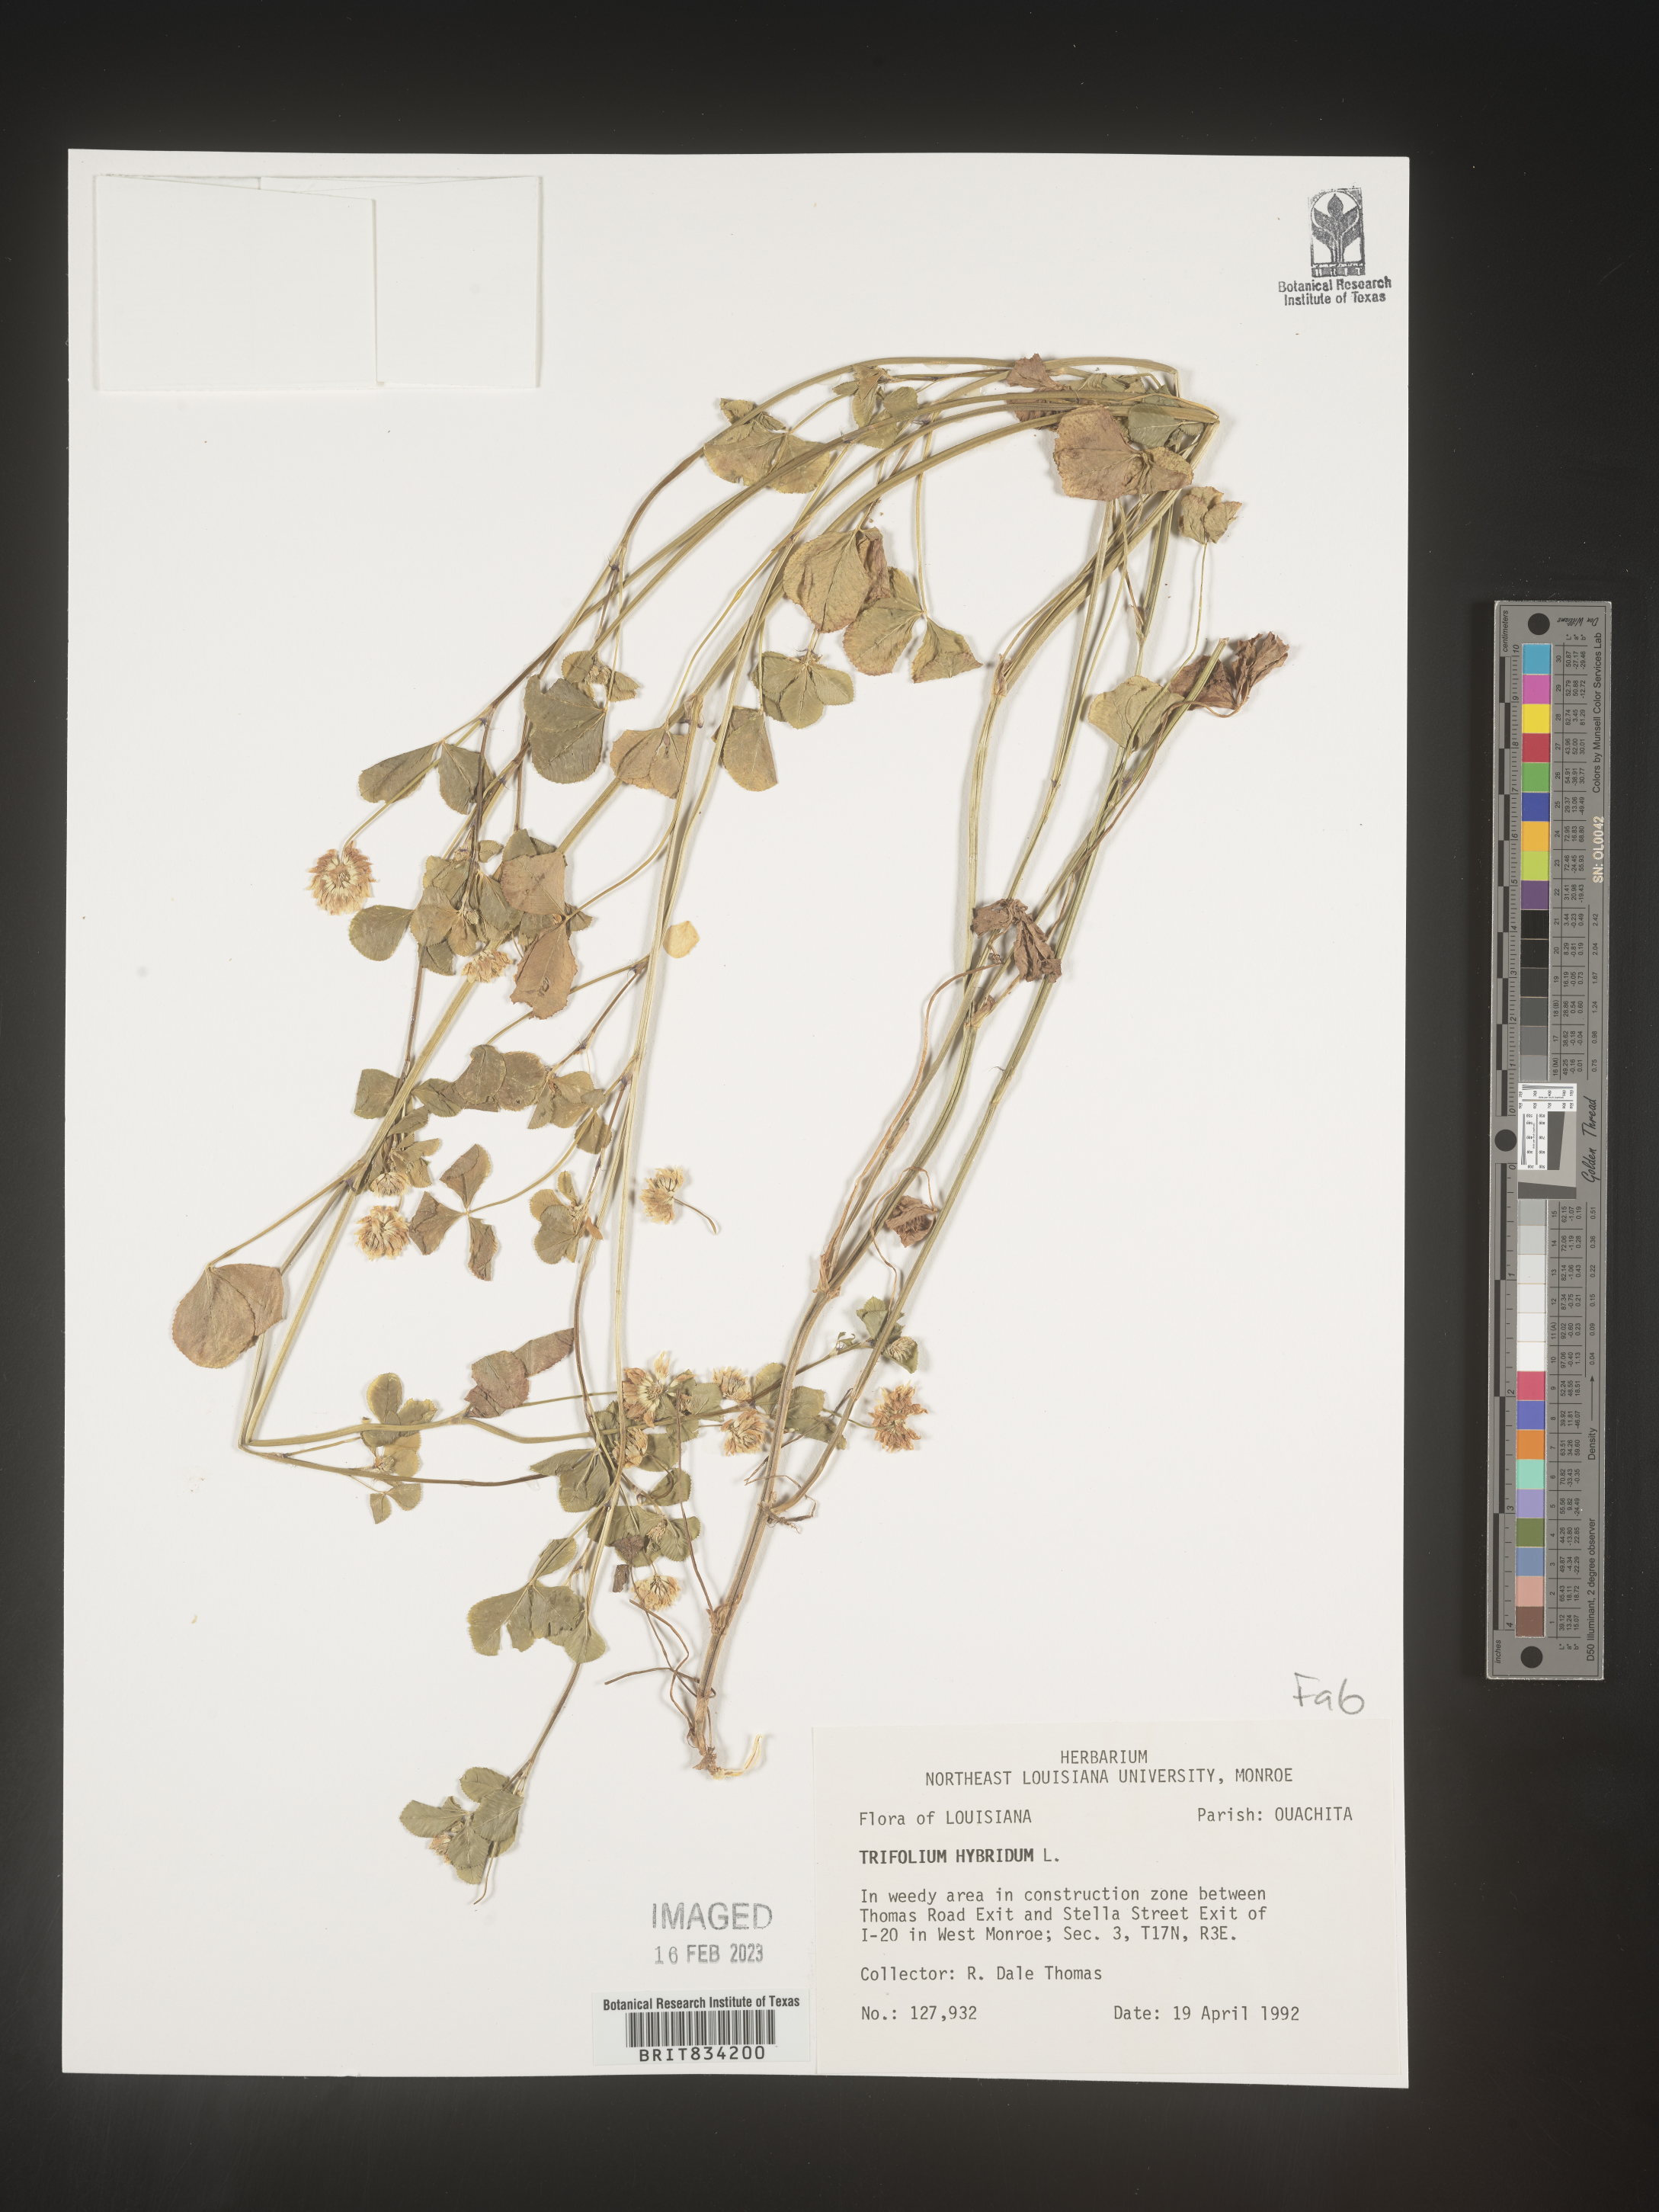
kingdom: Plantae
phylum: Tracheophyta
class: Magnoliopsida
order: Fabales
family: Fabaceae
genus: Trifolium
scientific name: Trifolium hybridum
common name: Alsike clover
